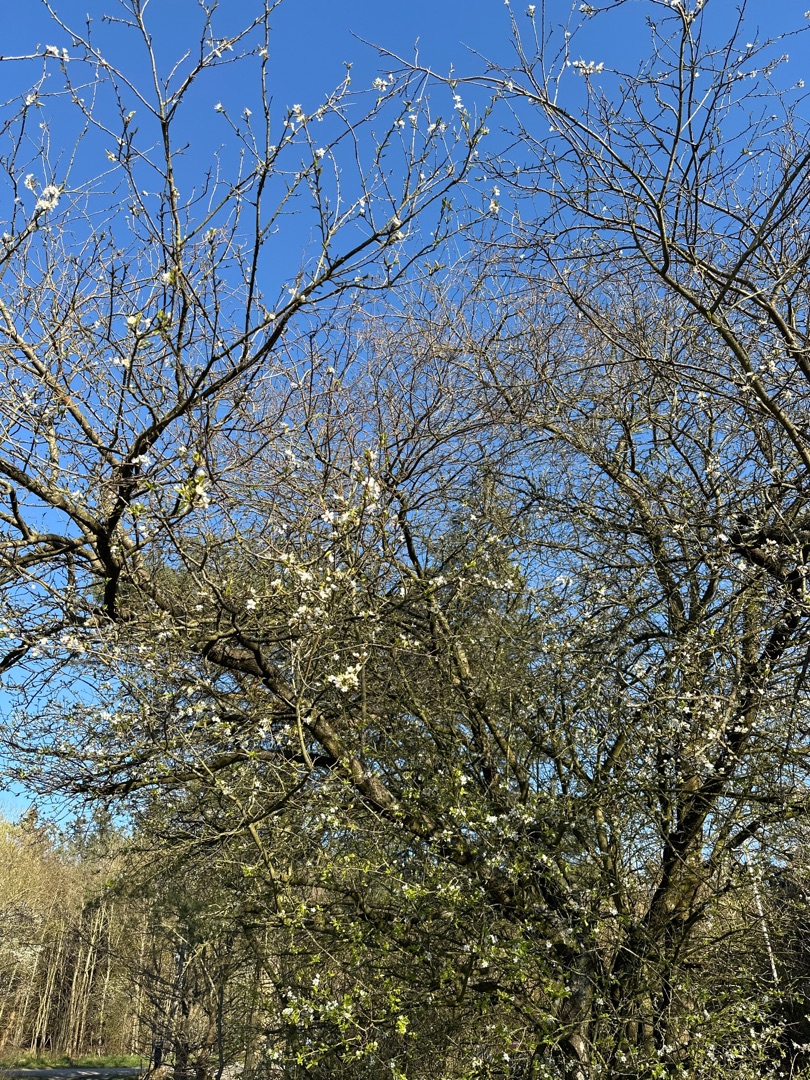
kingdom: Plantae
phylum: Tracheophyta
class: Magnoliopsida
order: Rosales
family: Rosaceae
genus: Prunus
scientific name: Prunus cerasifera
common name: Mirabel
